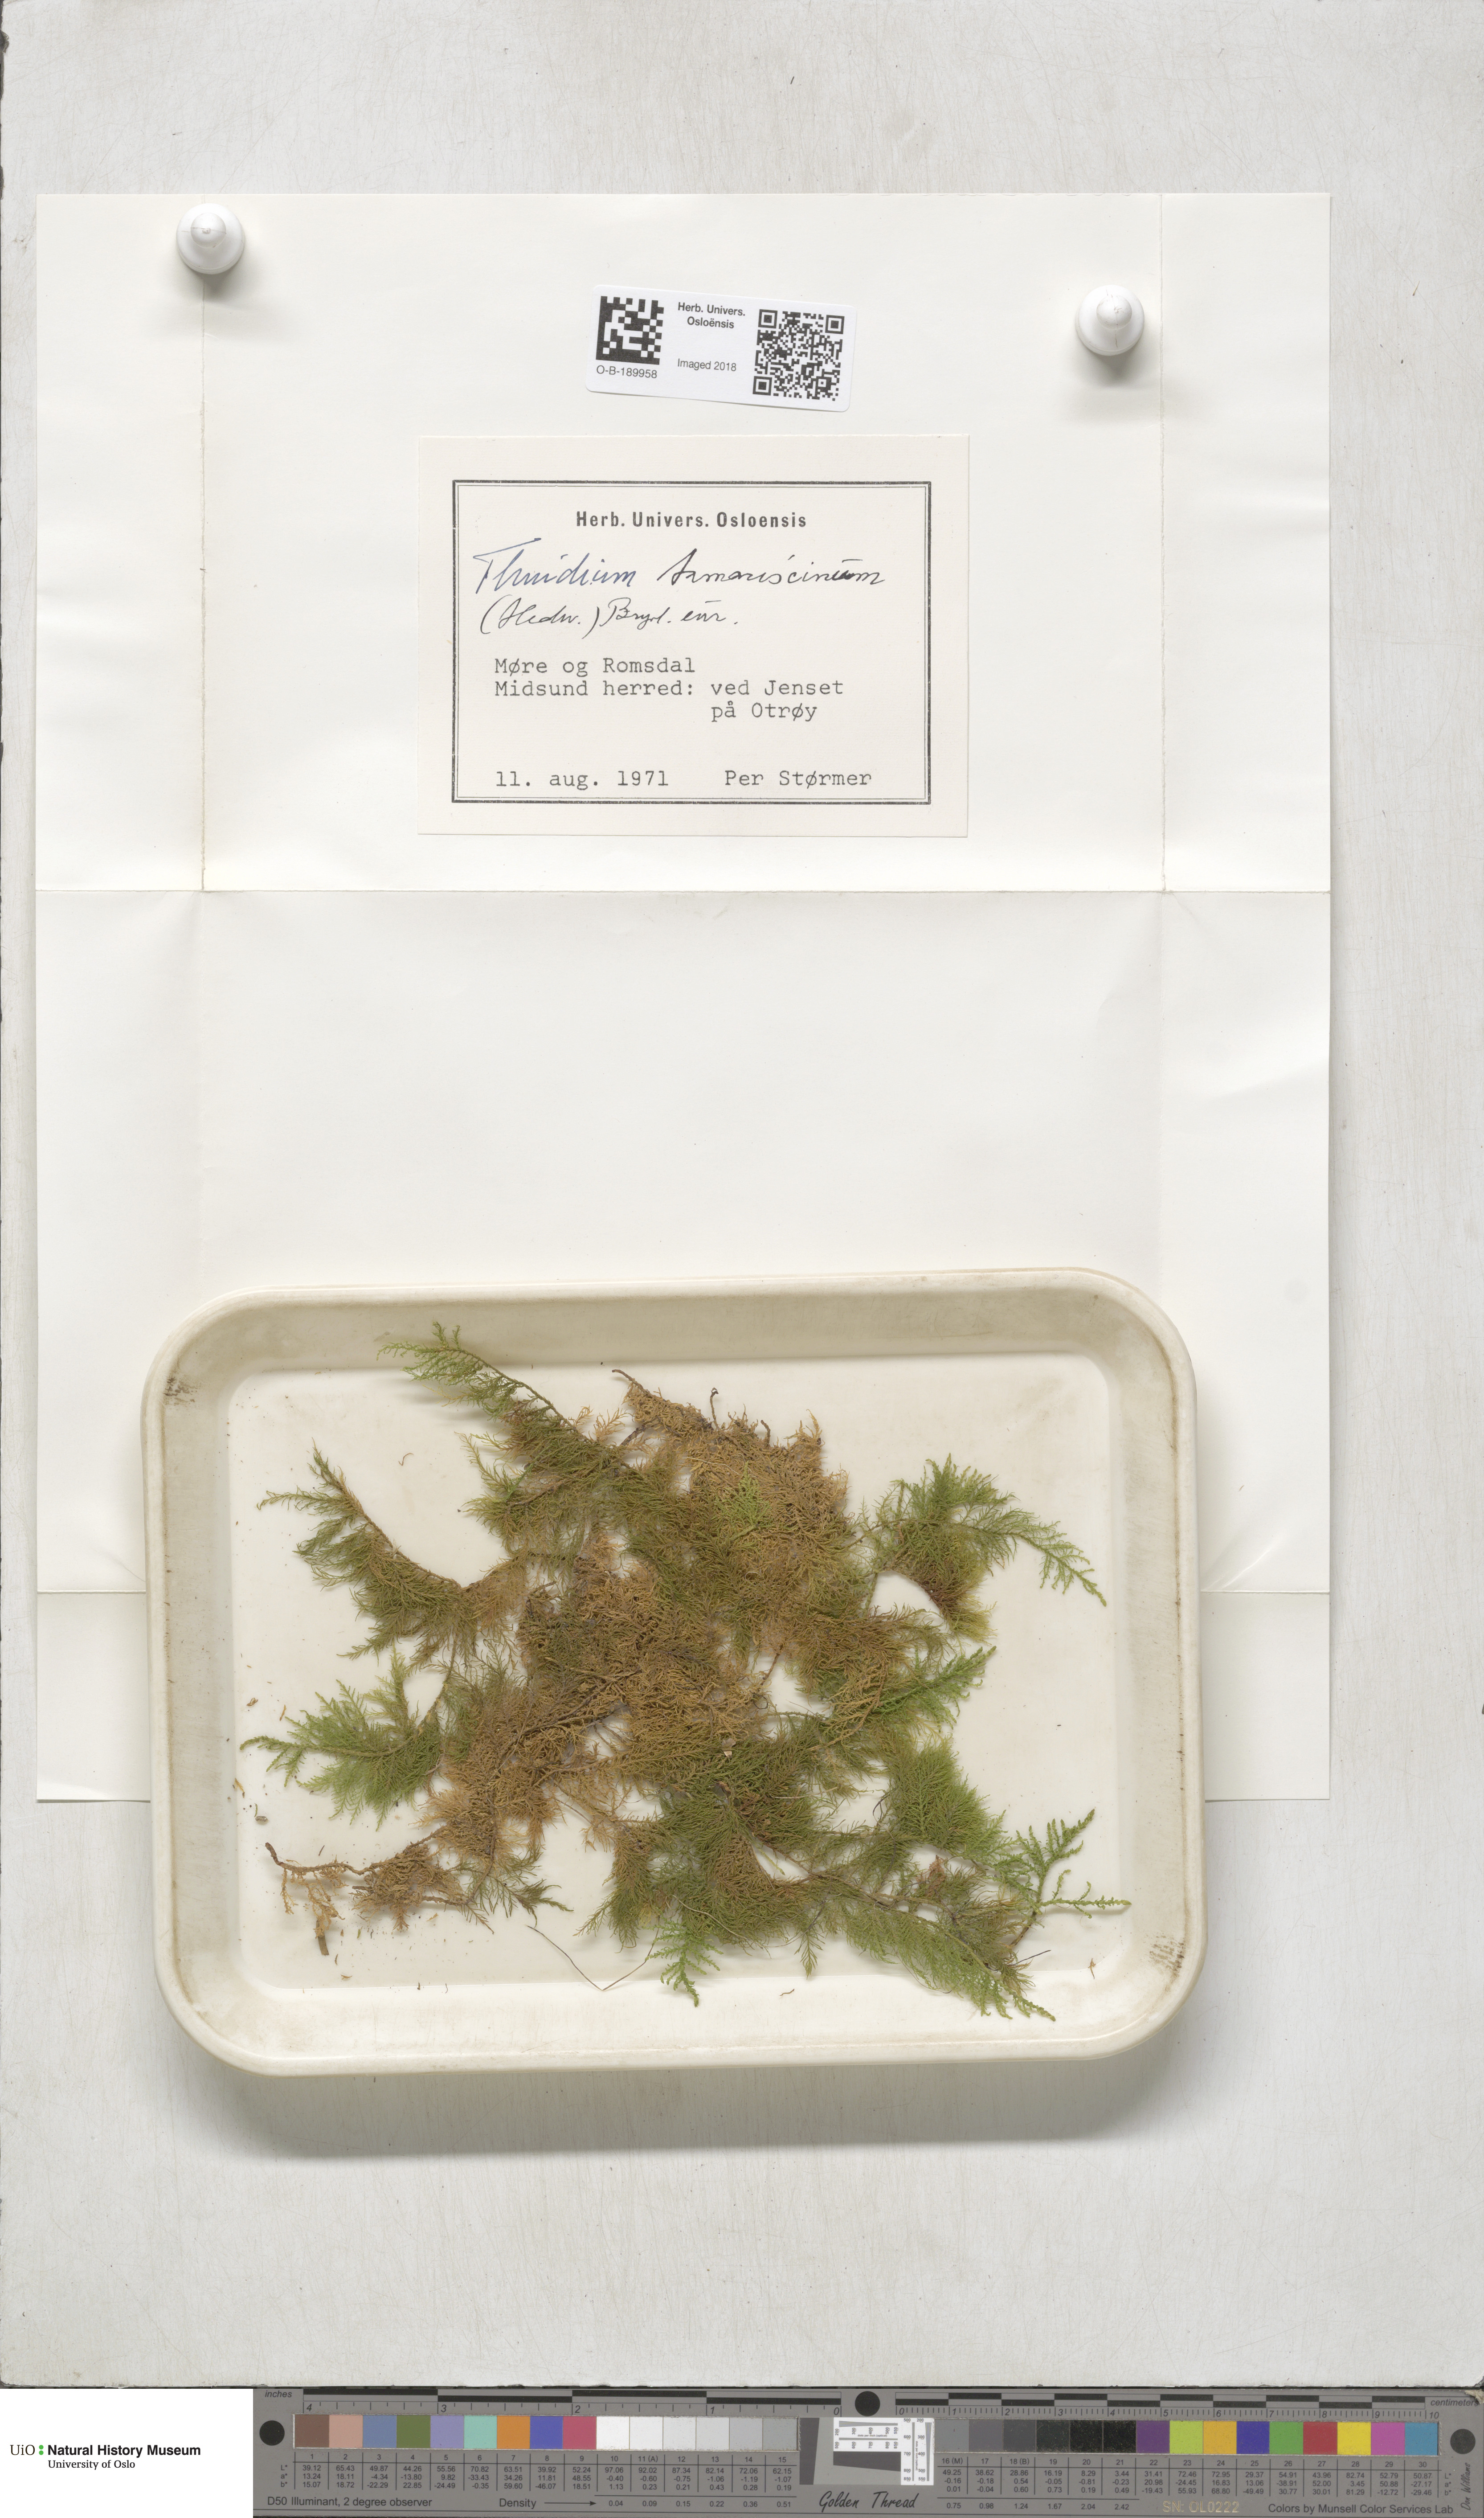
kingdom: Plantae
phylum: Bryophyta
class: Bryopsida
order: Hypnales
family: Thuidiaceae
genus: Thuidium
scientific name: Thuidium tamariscinum
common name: Common tamarisk-moss
